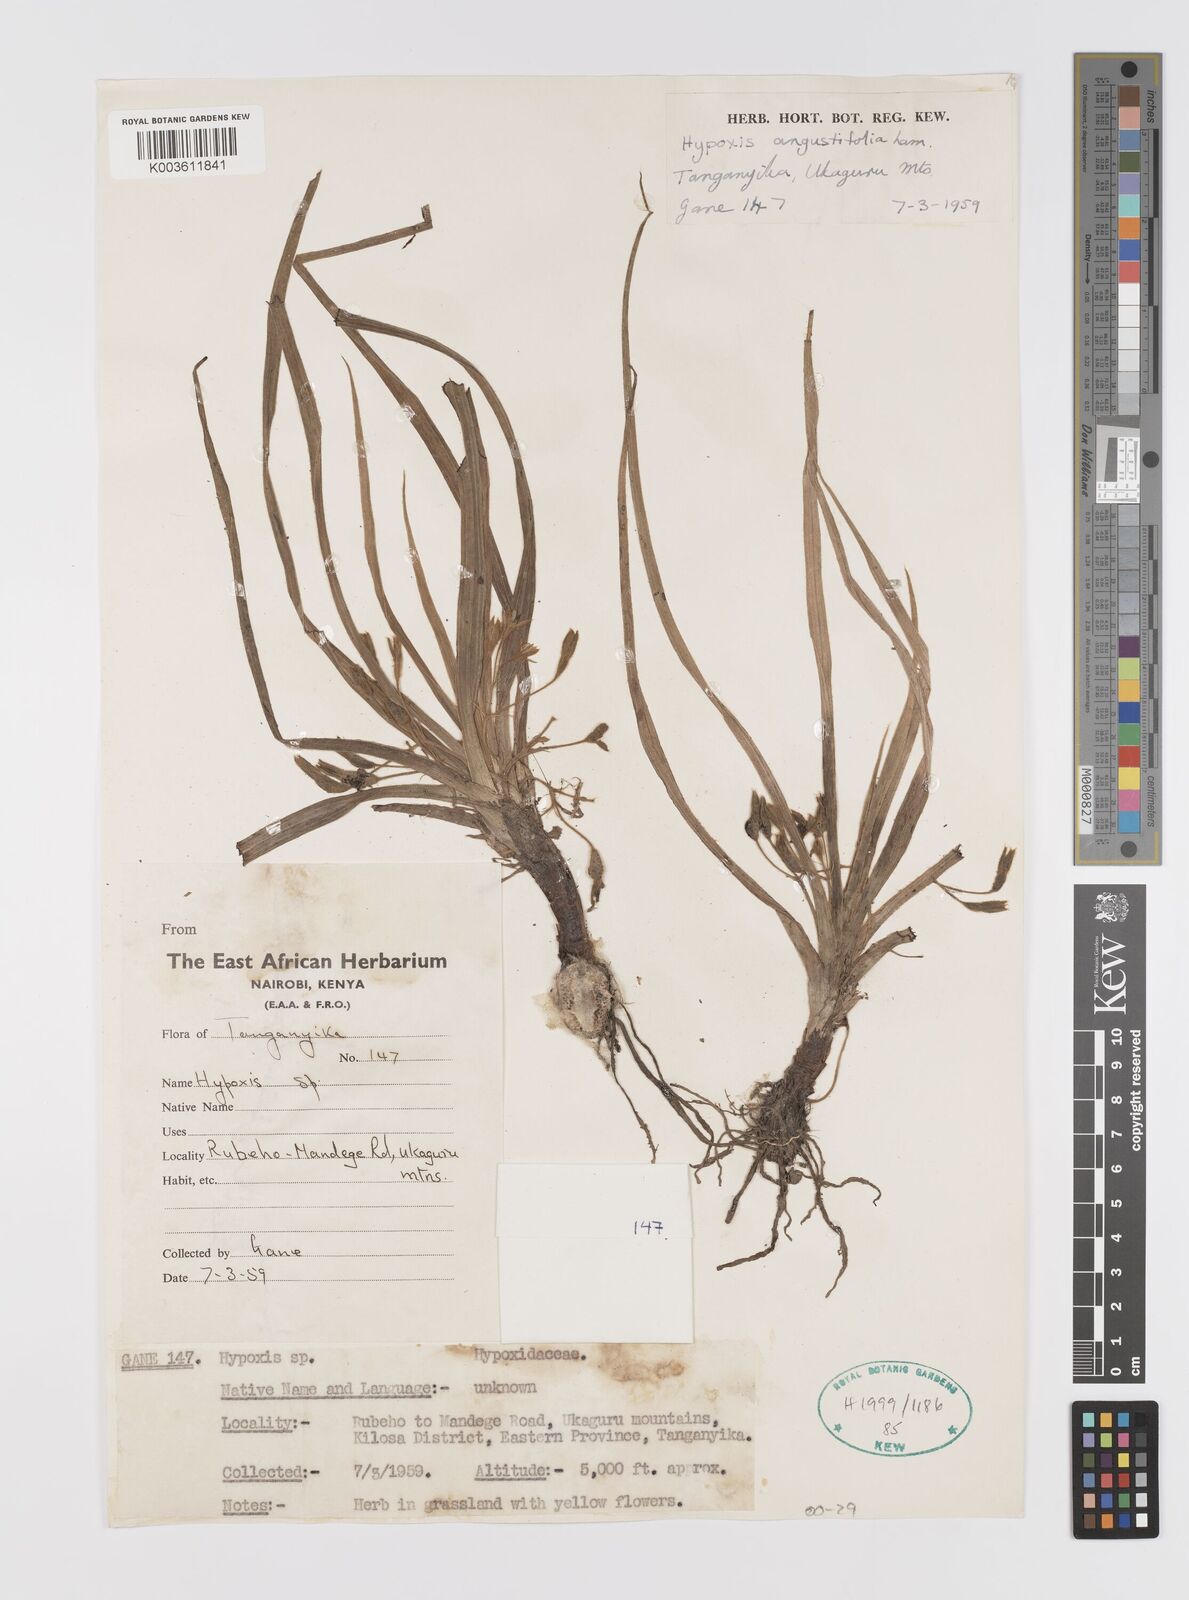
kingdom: Plantae
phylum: Tracheophyta
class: Liliopsida
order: Asparagales
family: Hypoxidaceae
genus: Hypoxis
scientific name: Hypoxis angustifolia
